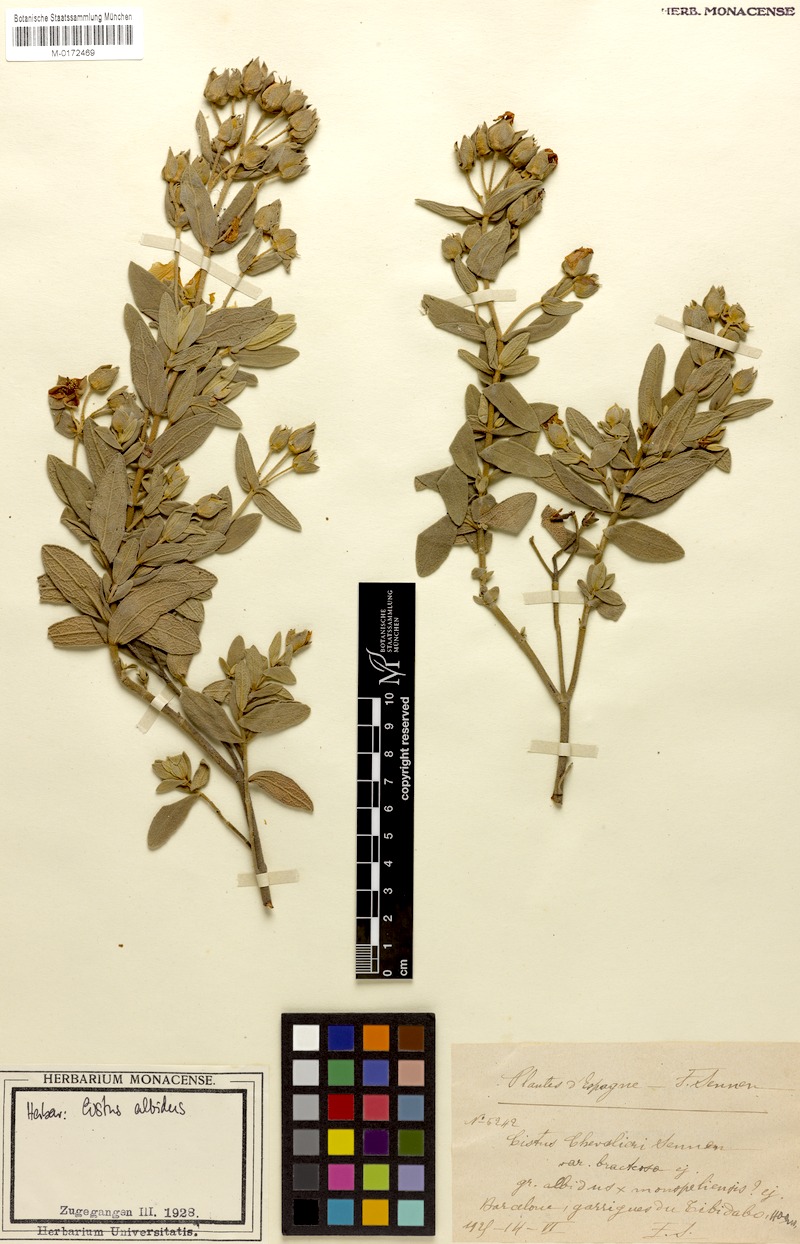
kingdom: Plantae
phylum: Tracheophyta
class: Magnoliopsida
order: Malvales
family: Cistaceae
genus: Cistus
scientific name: Cistus albidus
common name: White-leaf rock-rose
